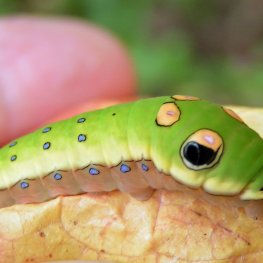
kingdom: Animalia
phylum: Arthropoda
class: Insecta
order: Lepidoptera
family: Papilionidae
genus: Pterourus
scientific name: Pterourus troilus
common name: Spicebush Swallowtail
